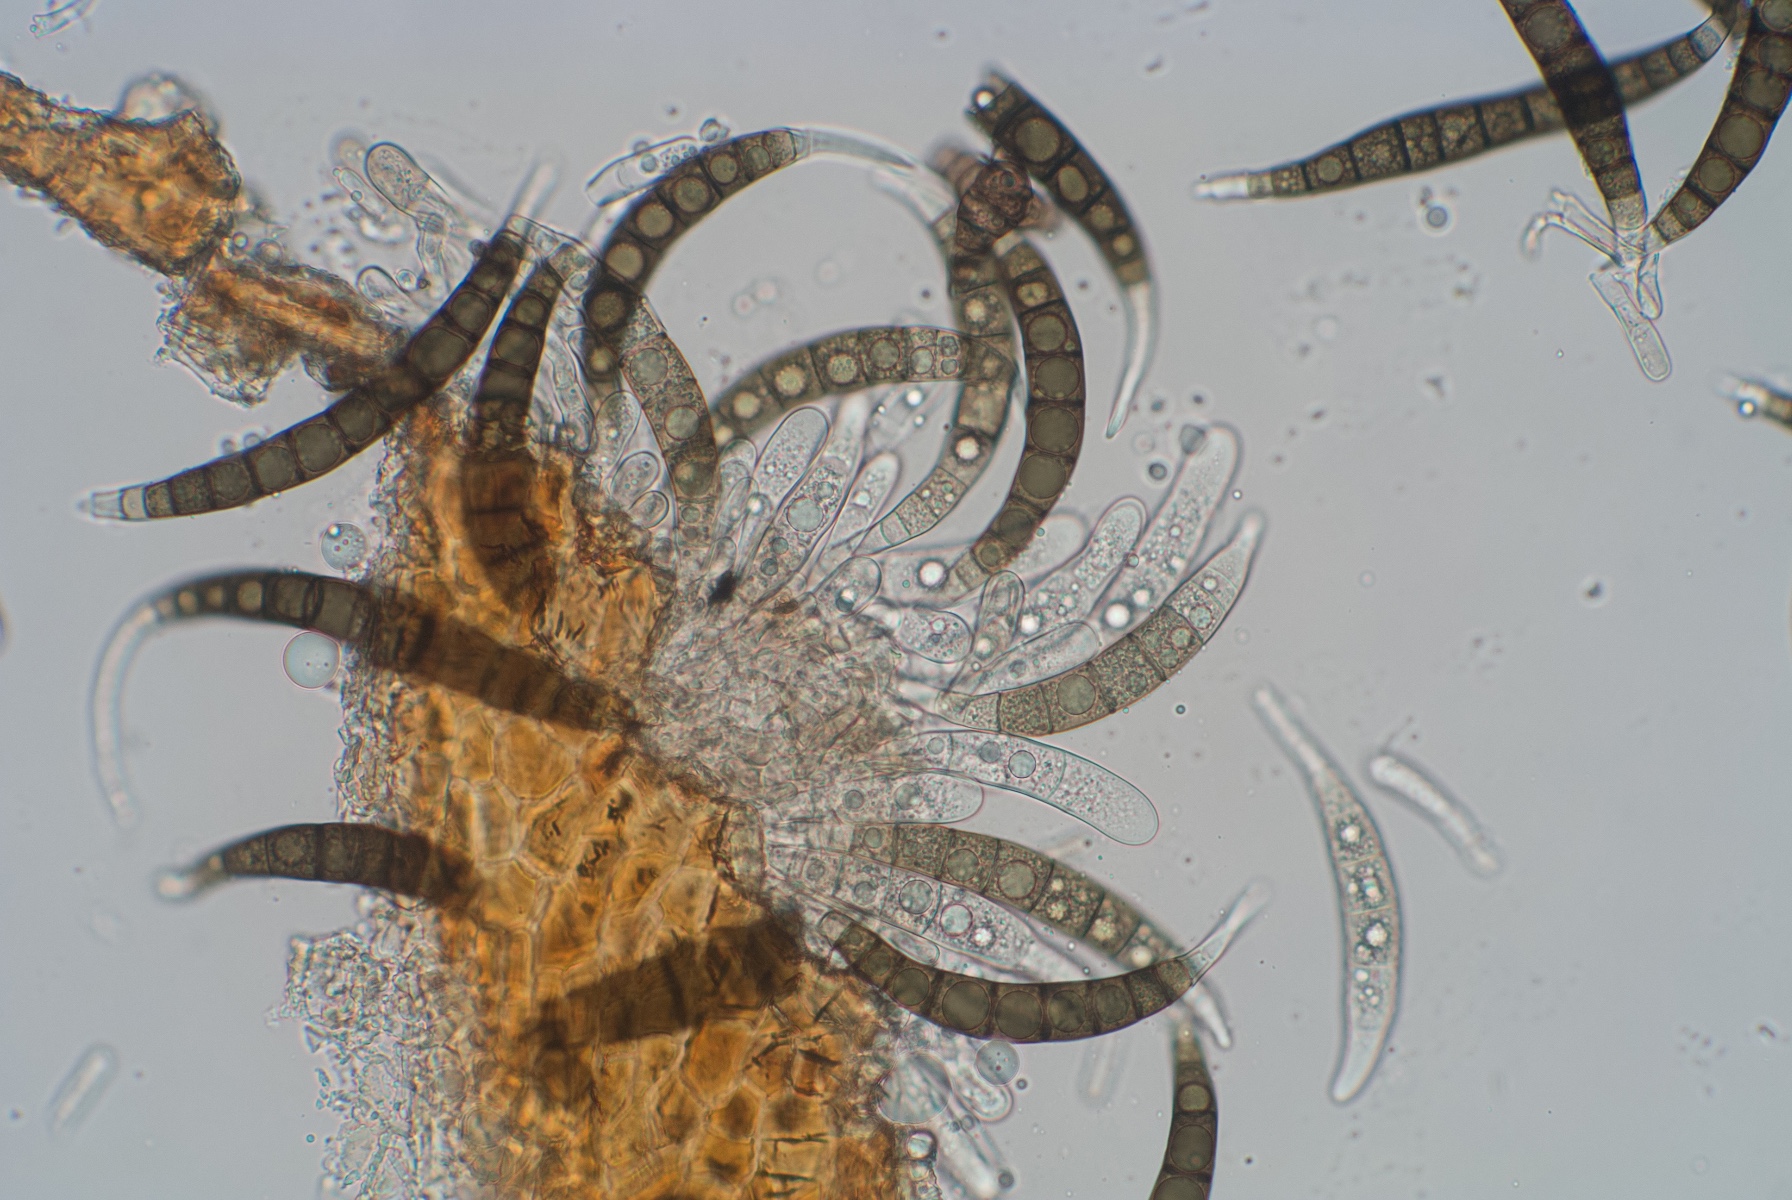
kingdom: Fungi
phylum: Ascomycota
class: Dothideomycetes
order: Pleosporales
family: Pleomassariaceae
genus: Asteromassaria
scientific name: Asteromassaria macrospora
